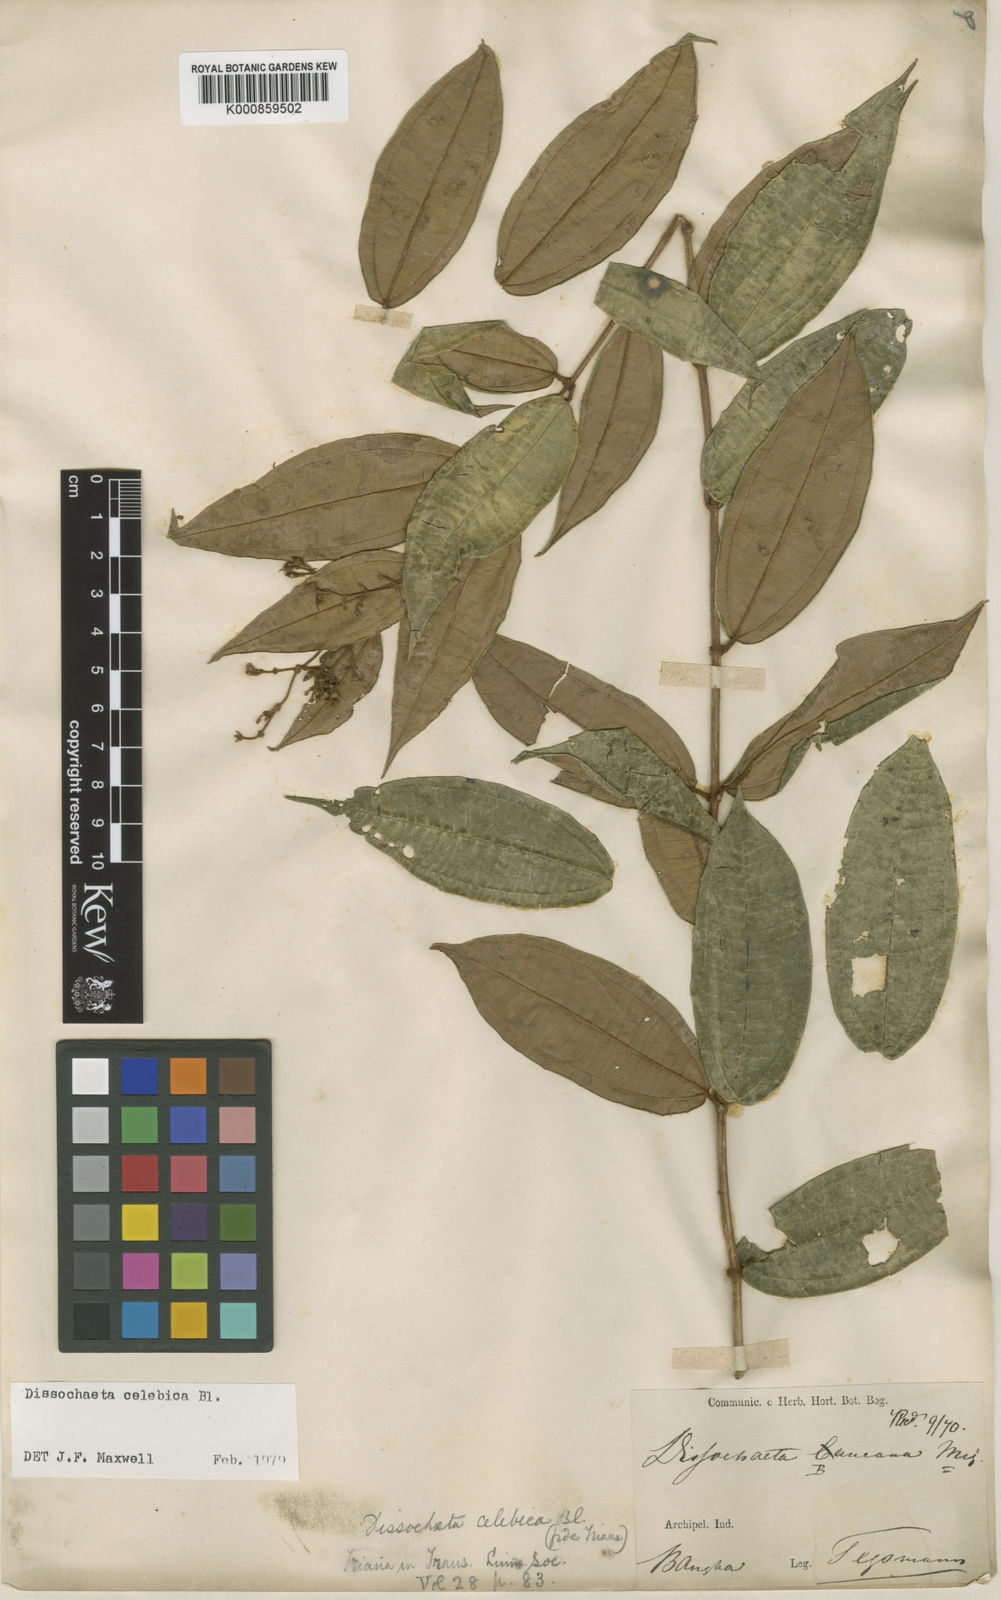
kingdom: Plantae
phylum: Tracheophyta
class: Magnoliopsida
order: Myrtales
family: Melastomataceae
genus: Dissochaeta
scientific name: Dissochaeta celebica
